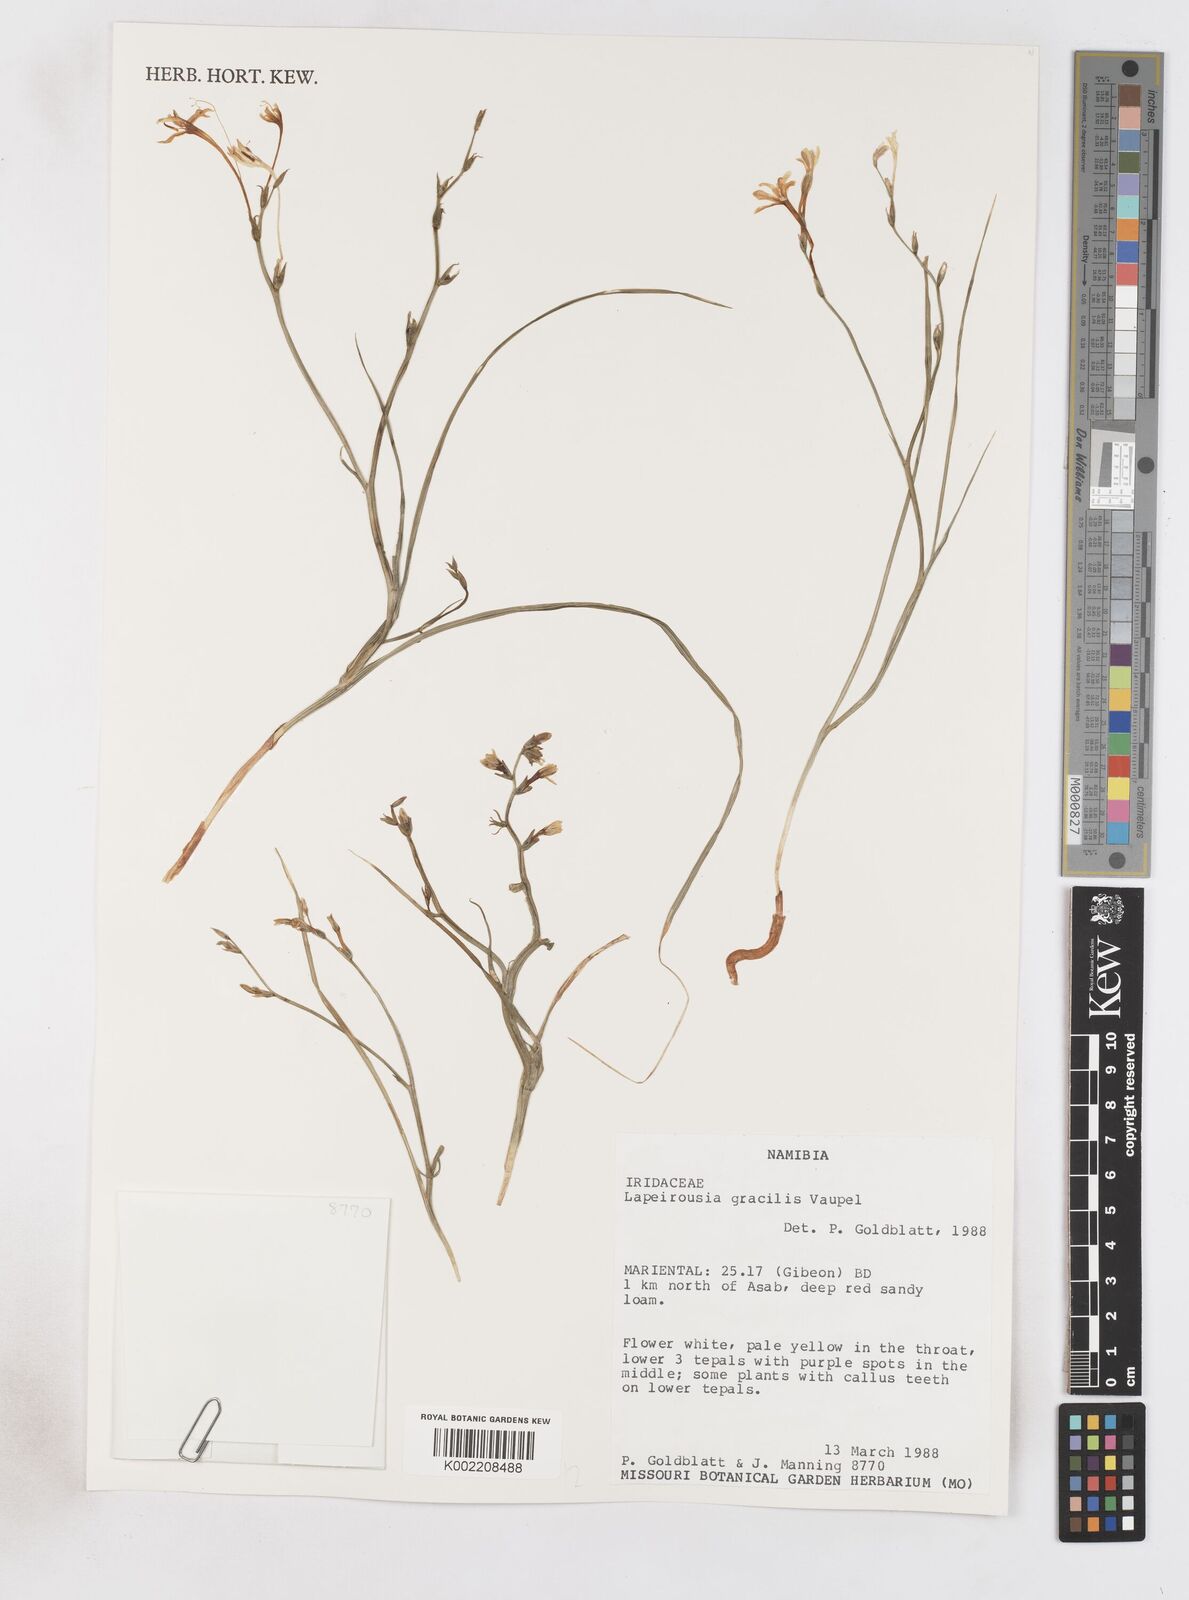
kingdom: Plantae
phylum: Tracheophyta
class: Liliopsida
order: Asparagales
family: Iridaceae
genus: Afrosolen
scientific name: Afrosolen gracilis
